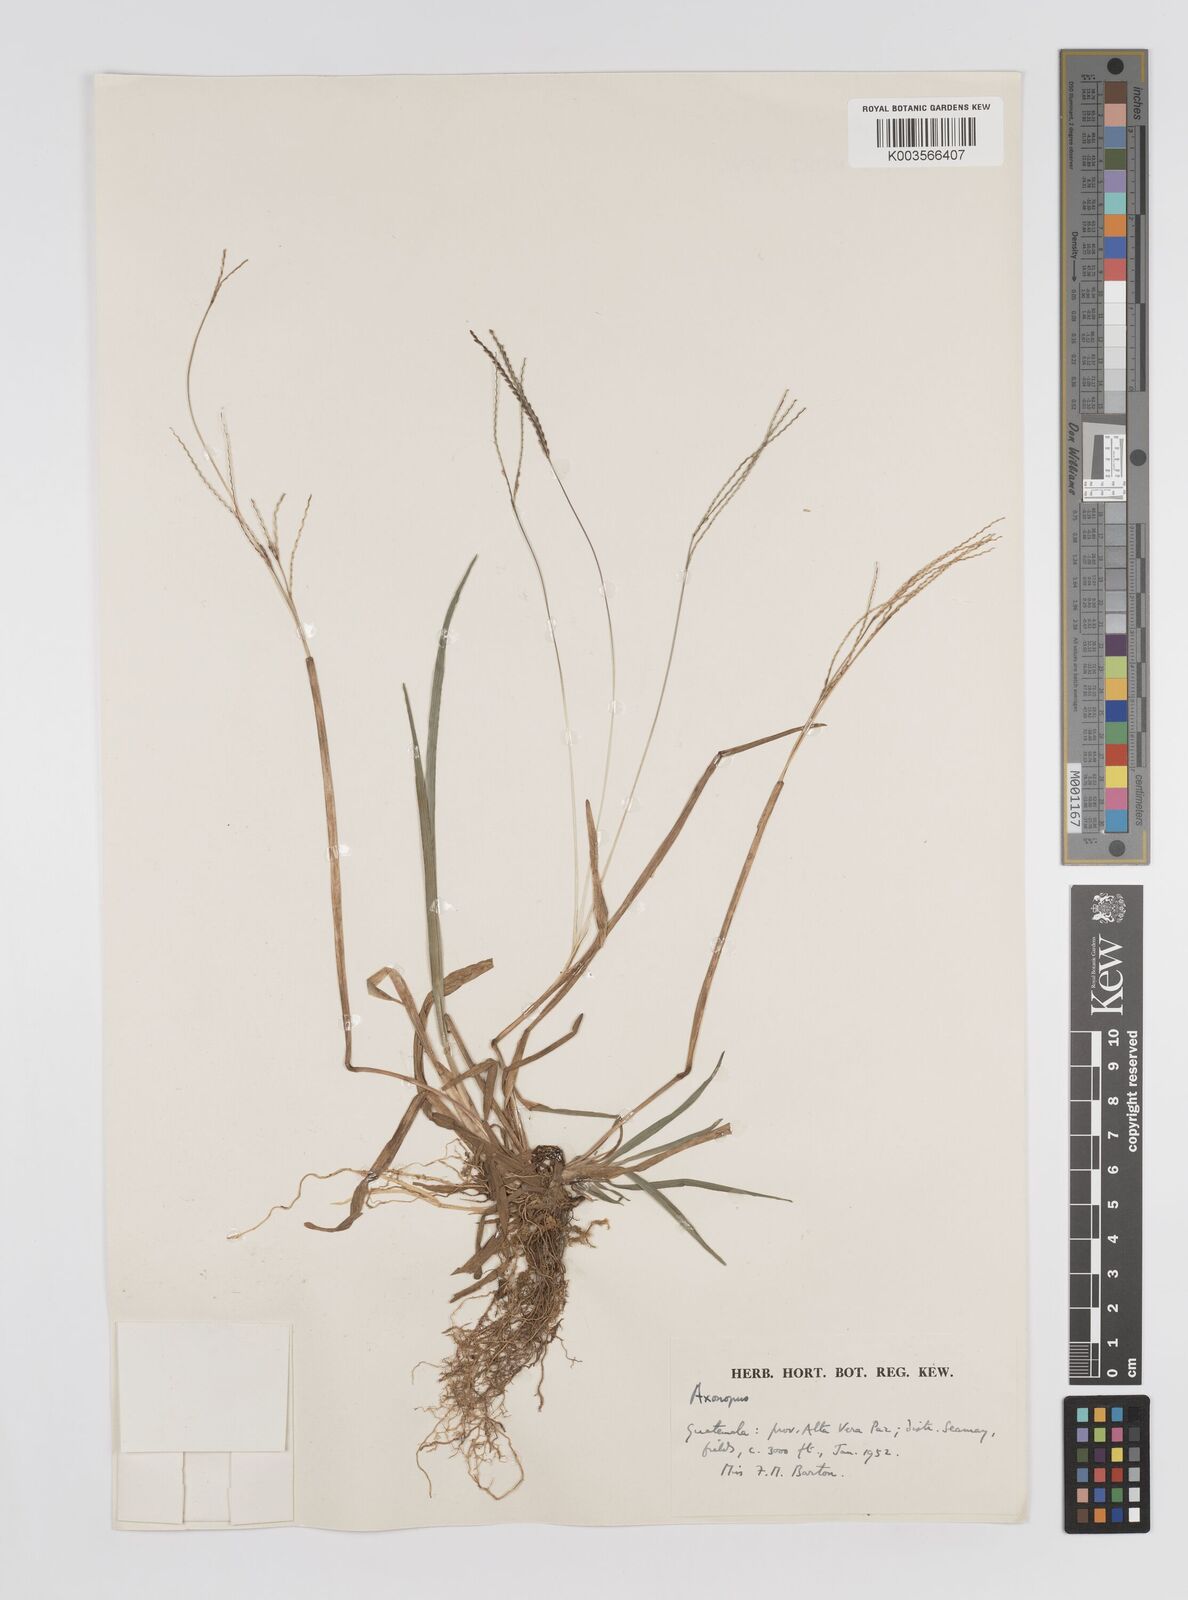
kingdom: Plantae
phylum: Tracheophyta
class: Liliopsida
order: Poales
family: Poaceae
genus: Axonopus
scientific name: Axonopus
